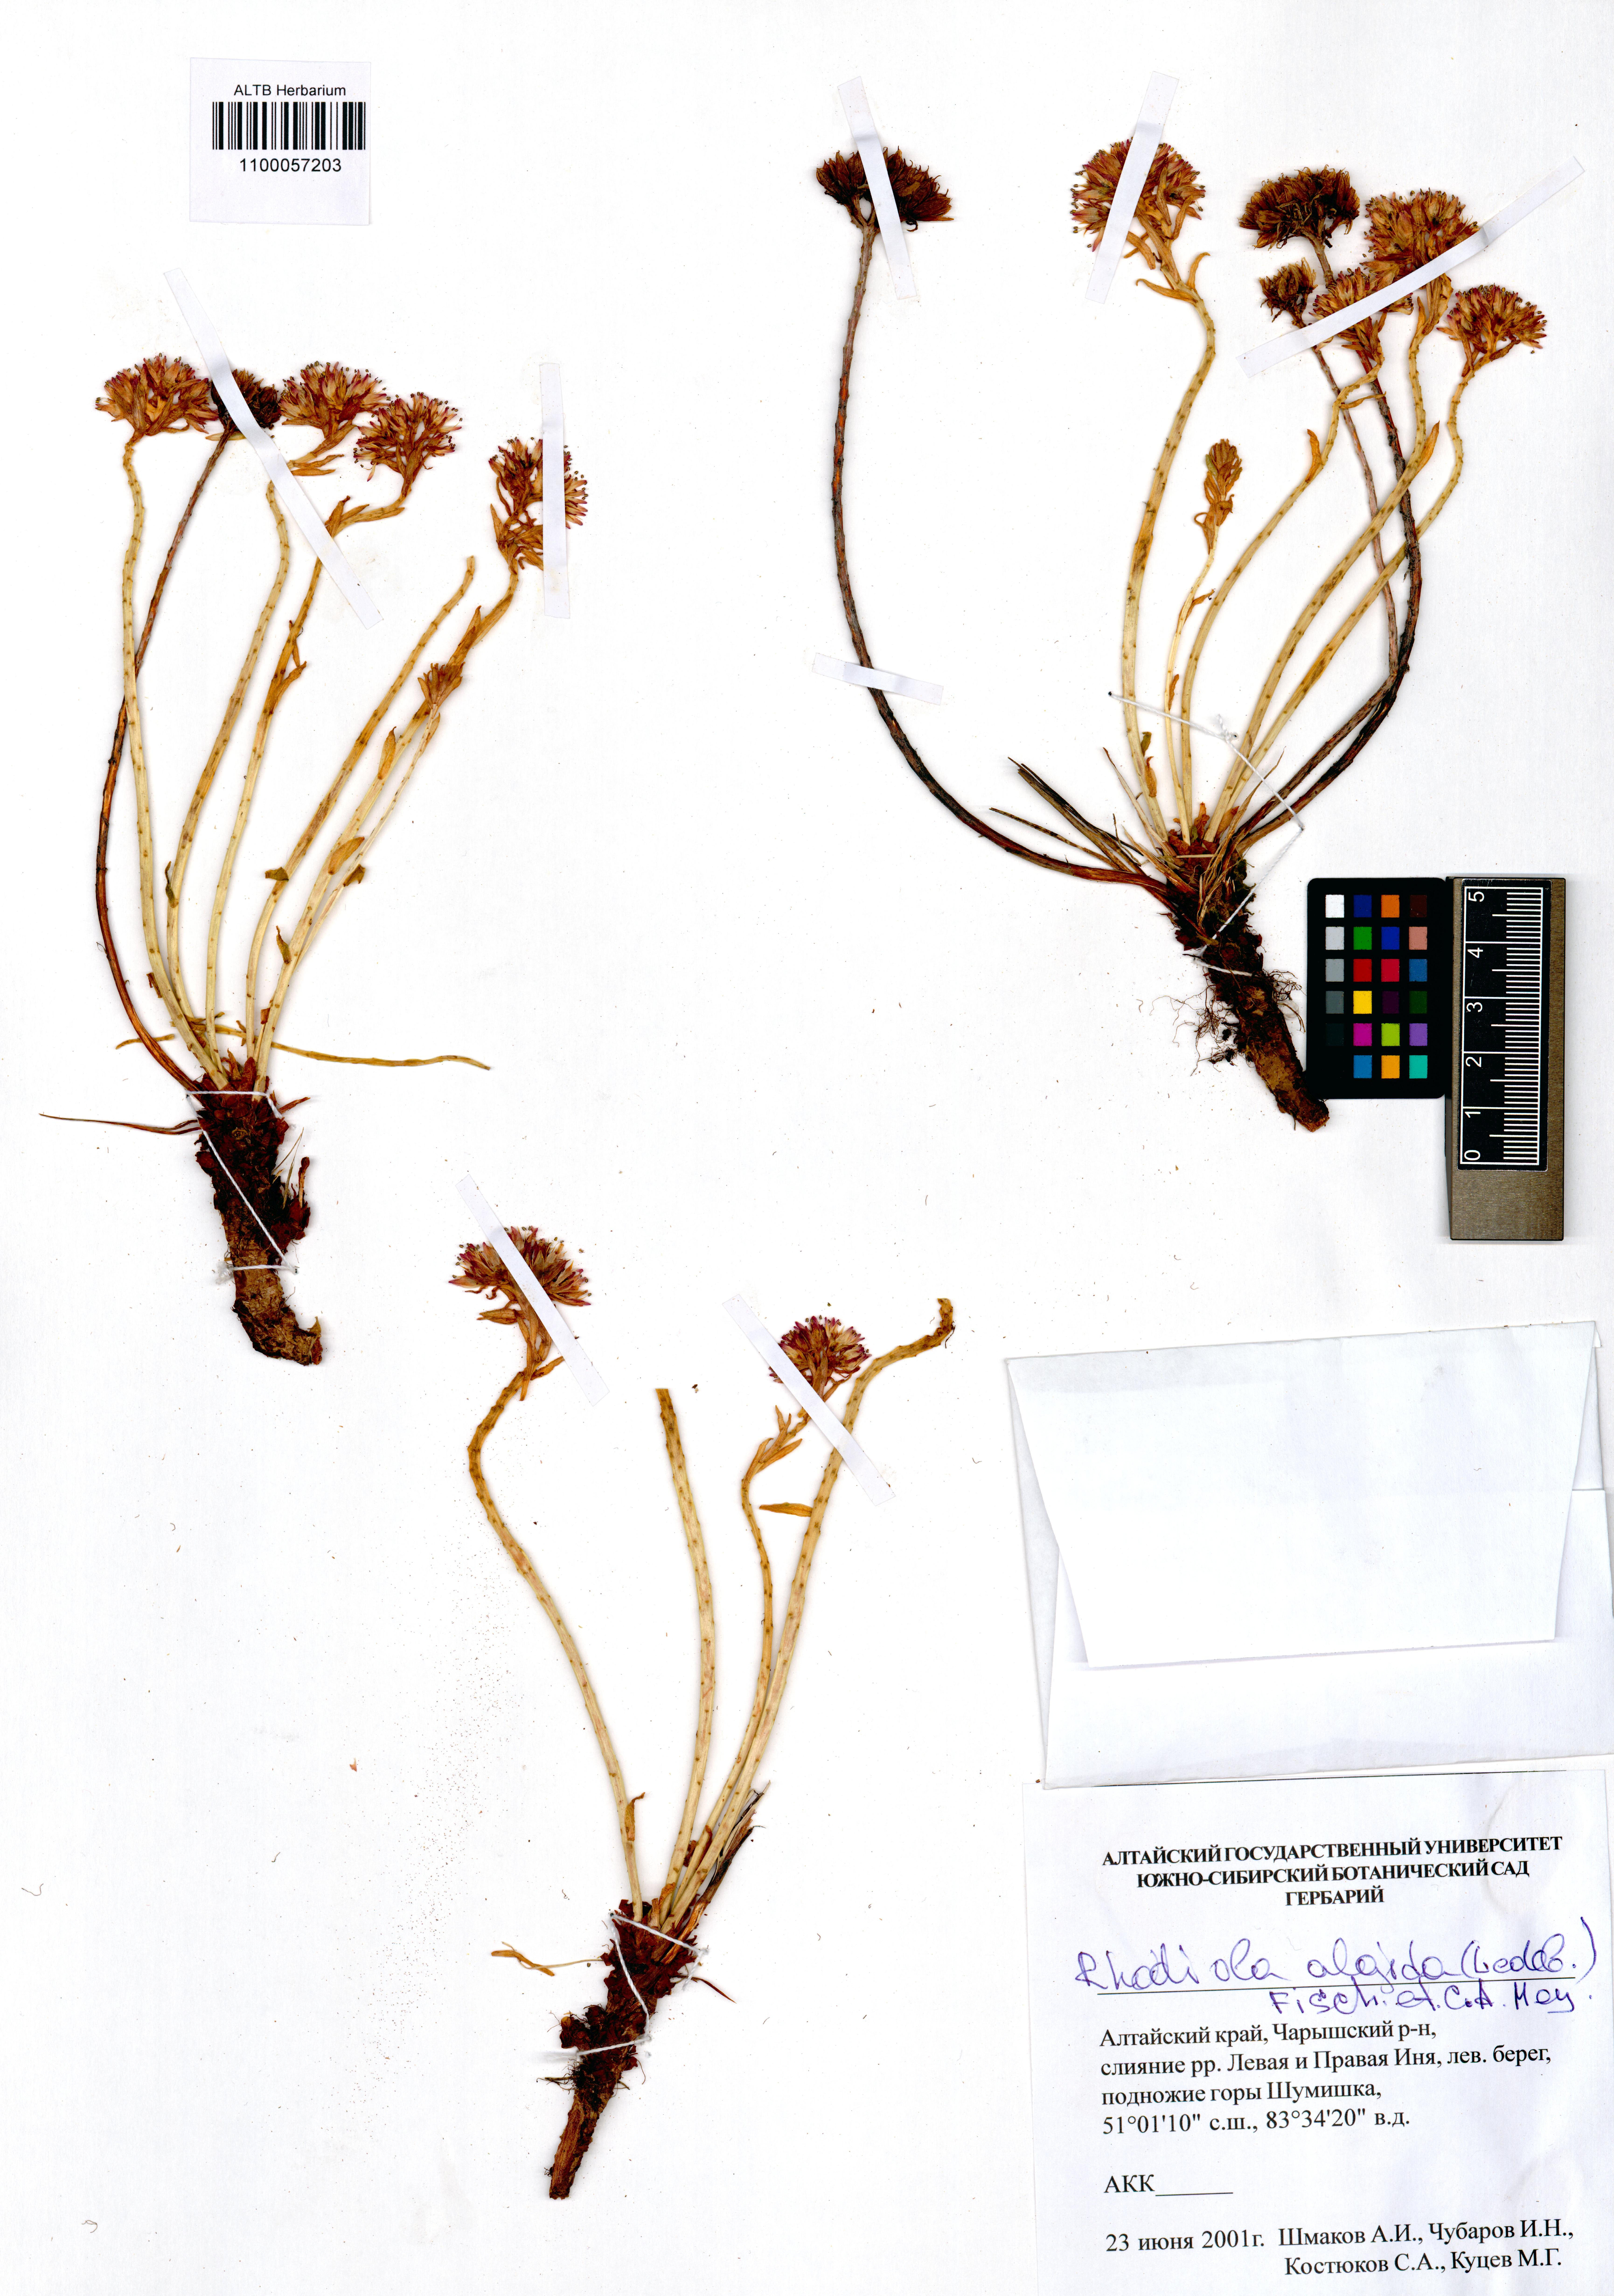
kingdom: Plantae
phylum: Tracheophyta
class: Magnoliopsida
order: Saxifragales
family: Crassulaceae
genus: Rhodiola
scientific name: Rhodiola algida
